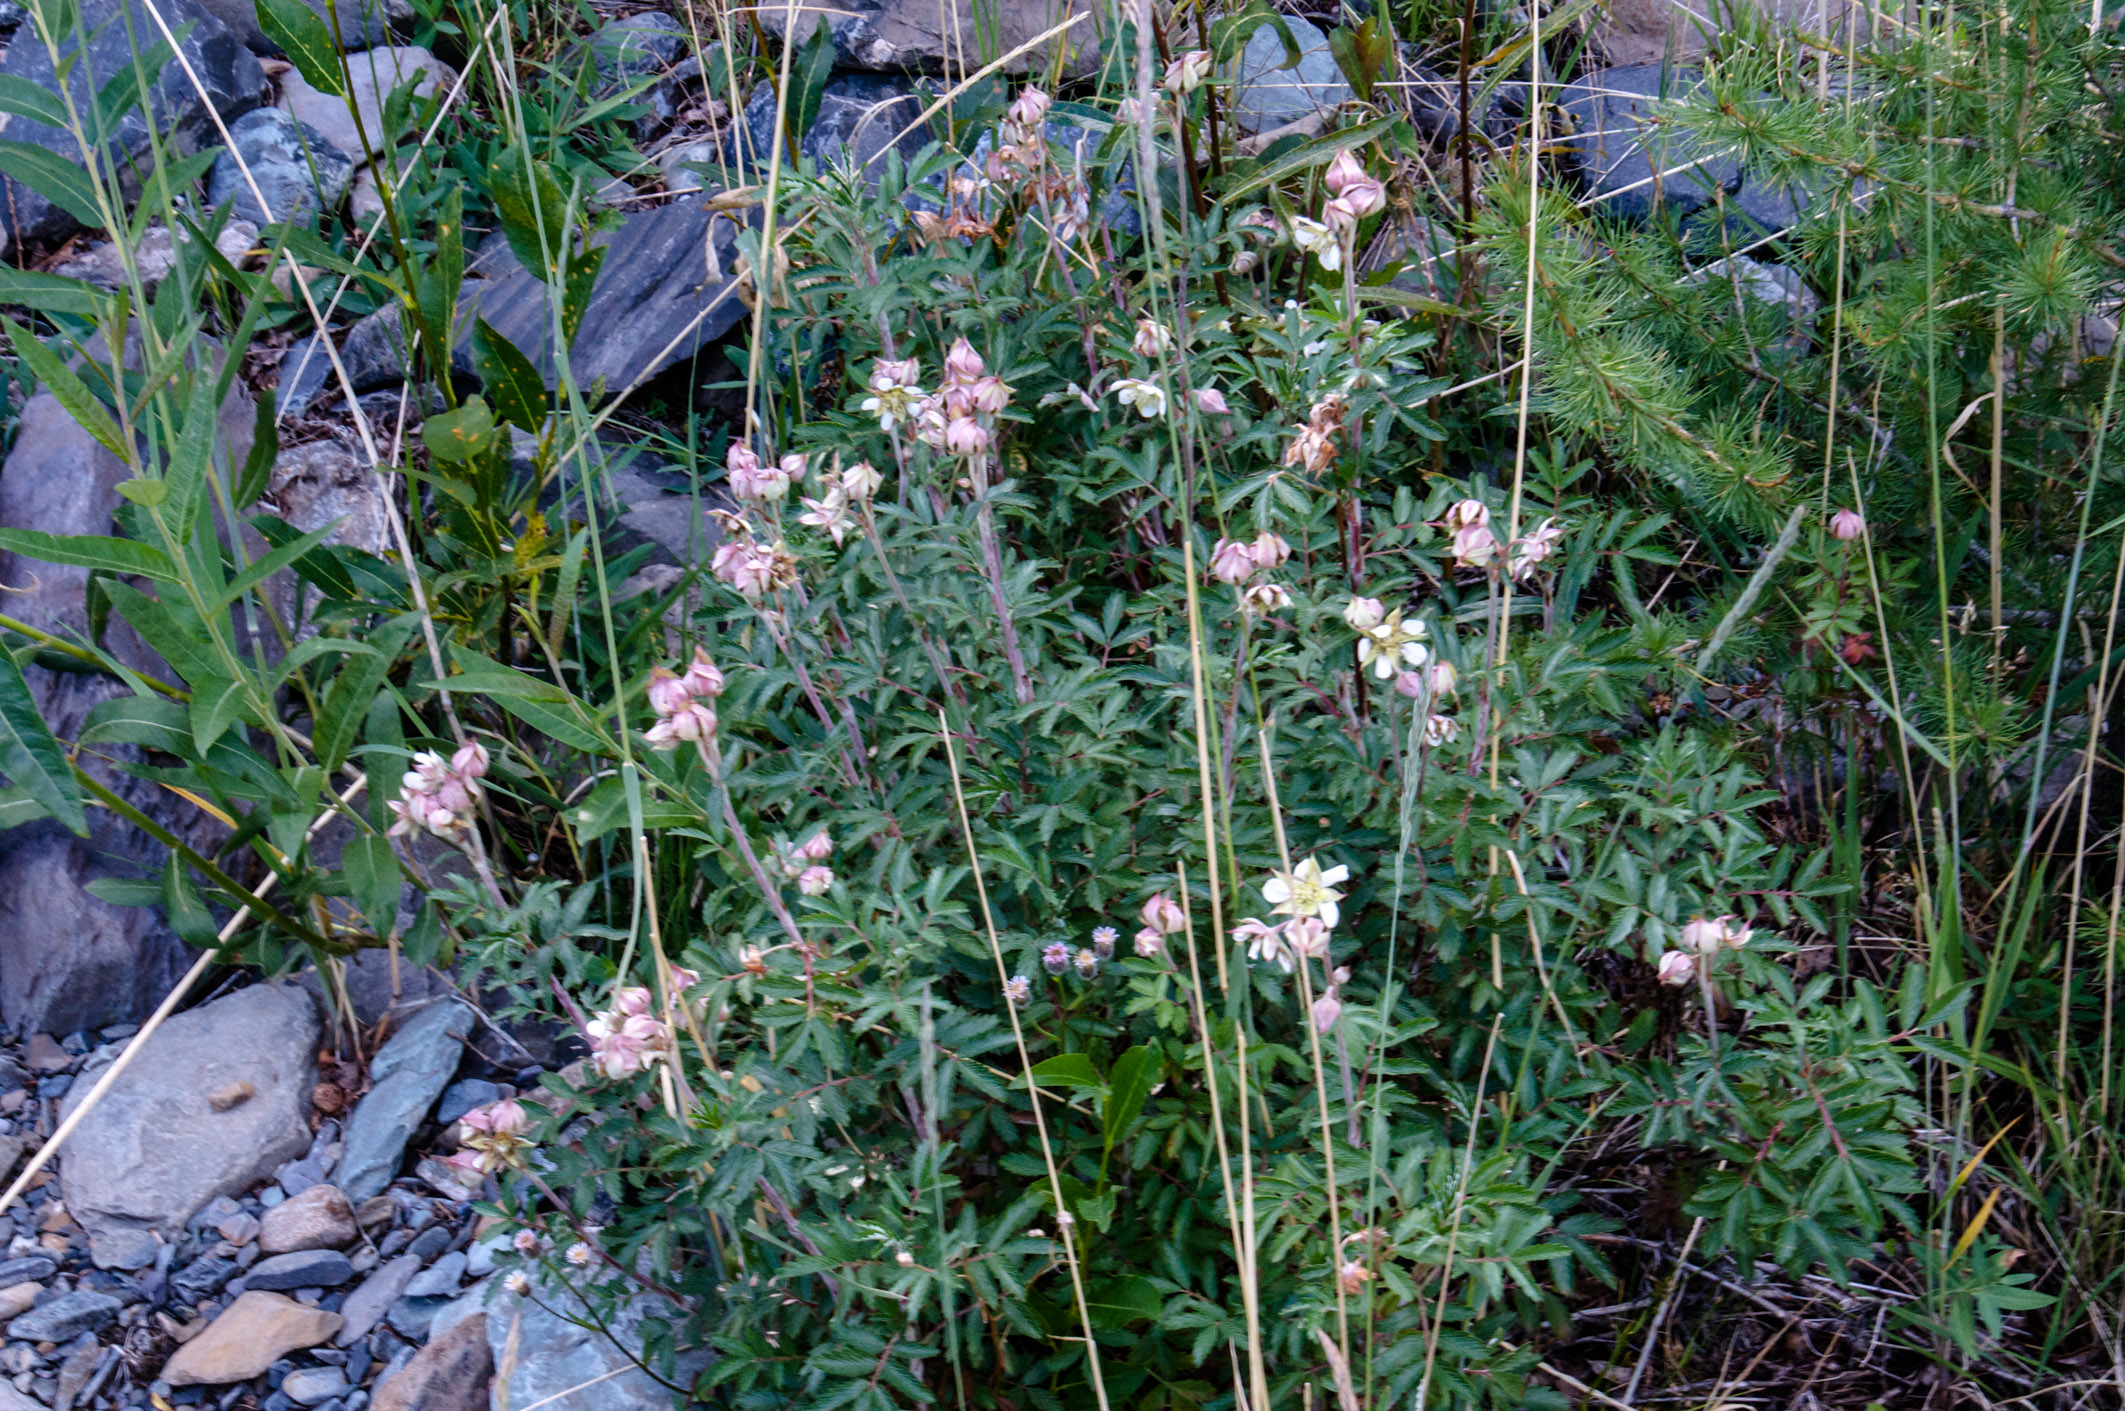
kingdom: Plantae
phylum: Tracheophyta
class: Magnoliopsida
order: Rosales
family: Rosaceae
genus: Farinopsis
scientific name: Farinopsis salesoviana
